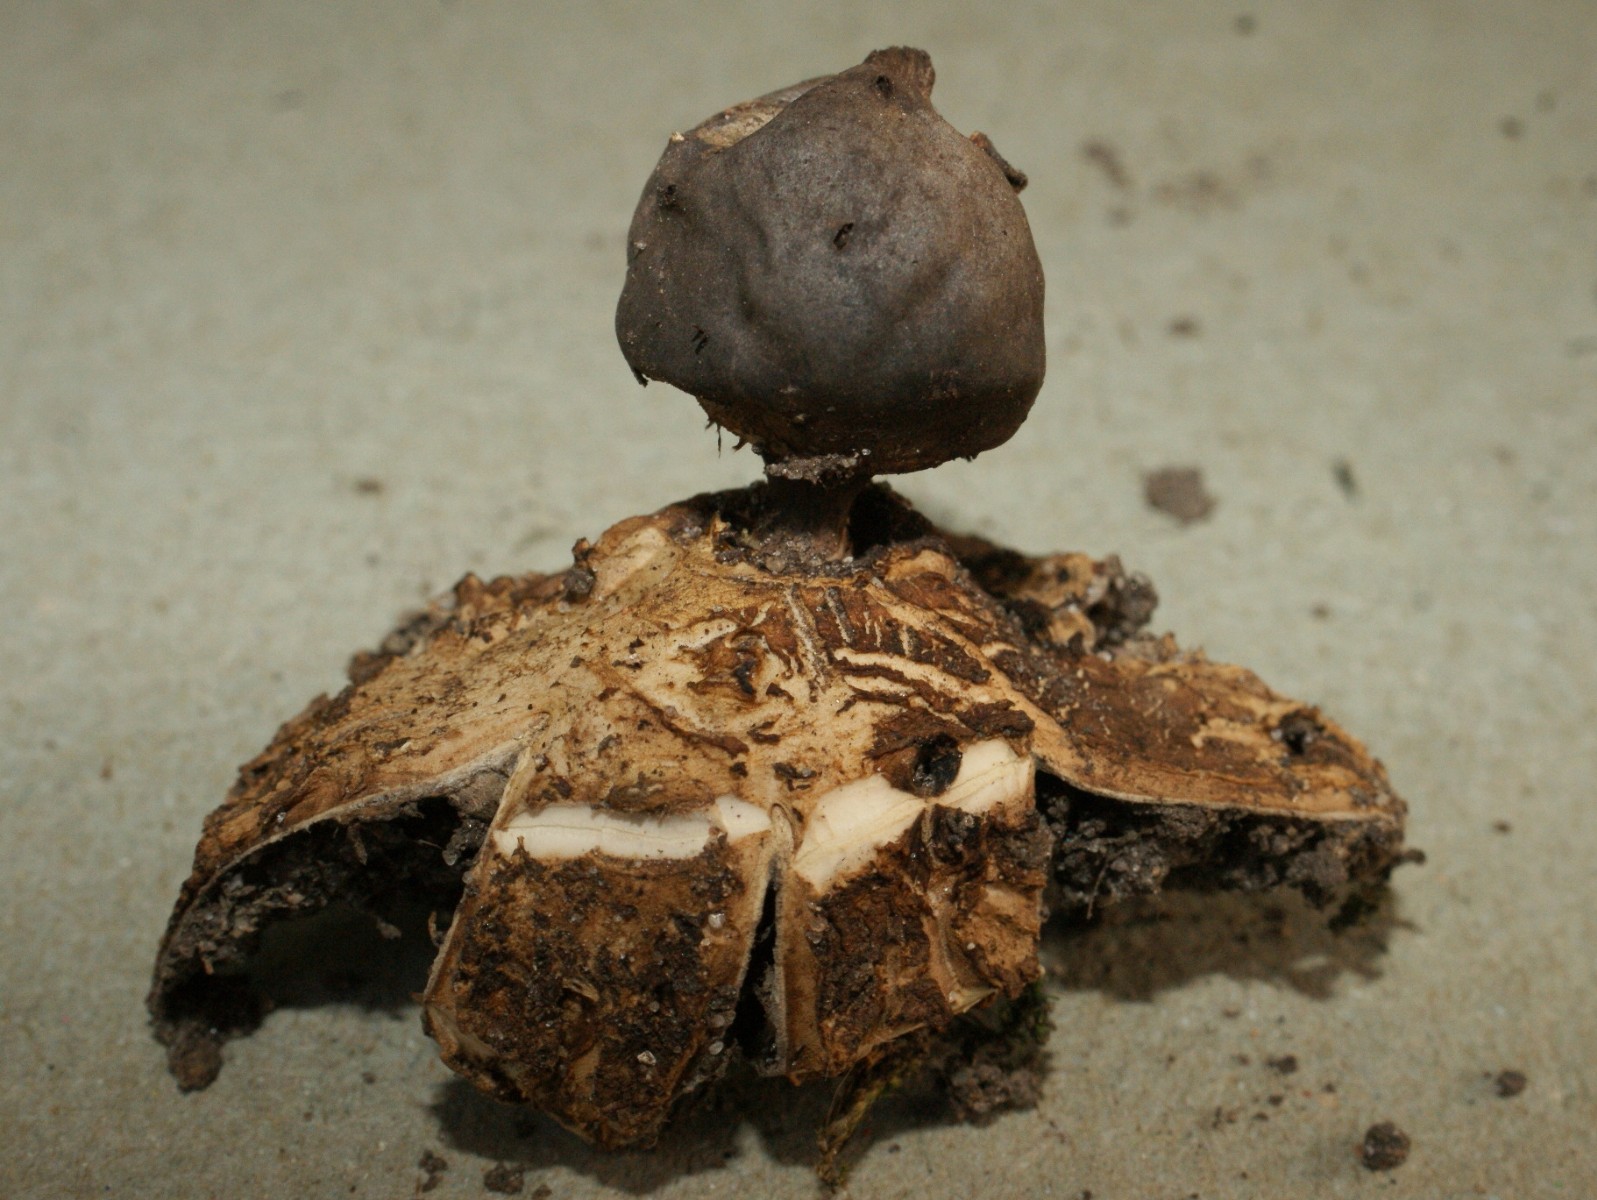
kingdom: Fungi
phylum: Basidiomycota
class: Agaricomycetes
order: Geastrales
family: Geastraceae
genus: Geastrum
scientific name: Geastrum coronatum
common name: mørk stjernebold
